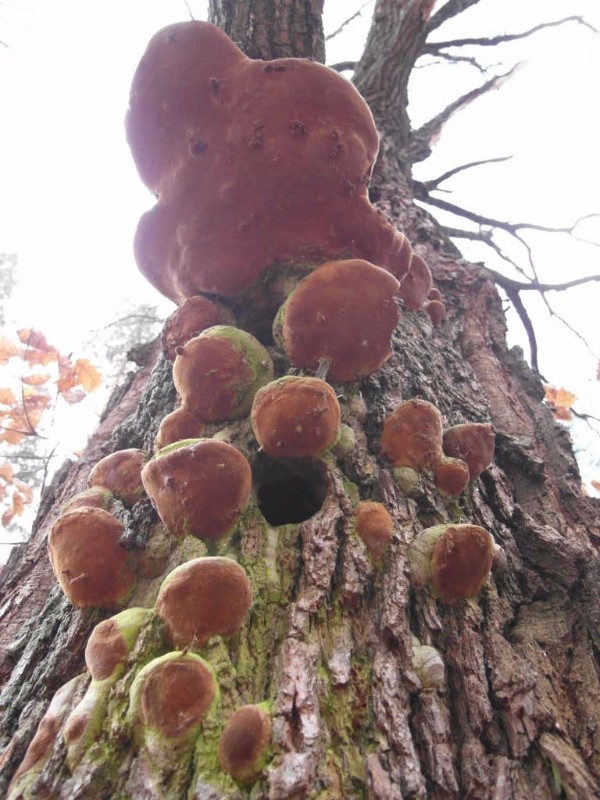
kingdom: Fungi
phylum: Basidiomycota
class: Agaricomycetes
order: Hymenochaetales
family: Hymenochaetaceae
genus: Fomitiporia
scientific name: Fomitiporia robusta
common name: ege-ildporesvamp
